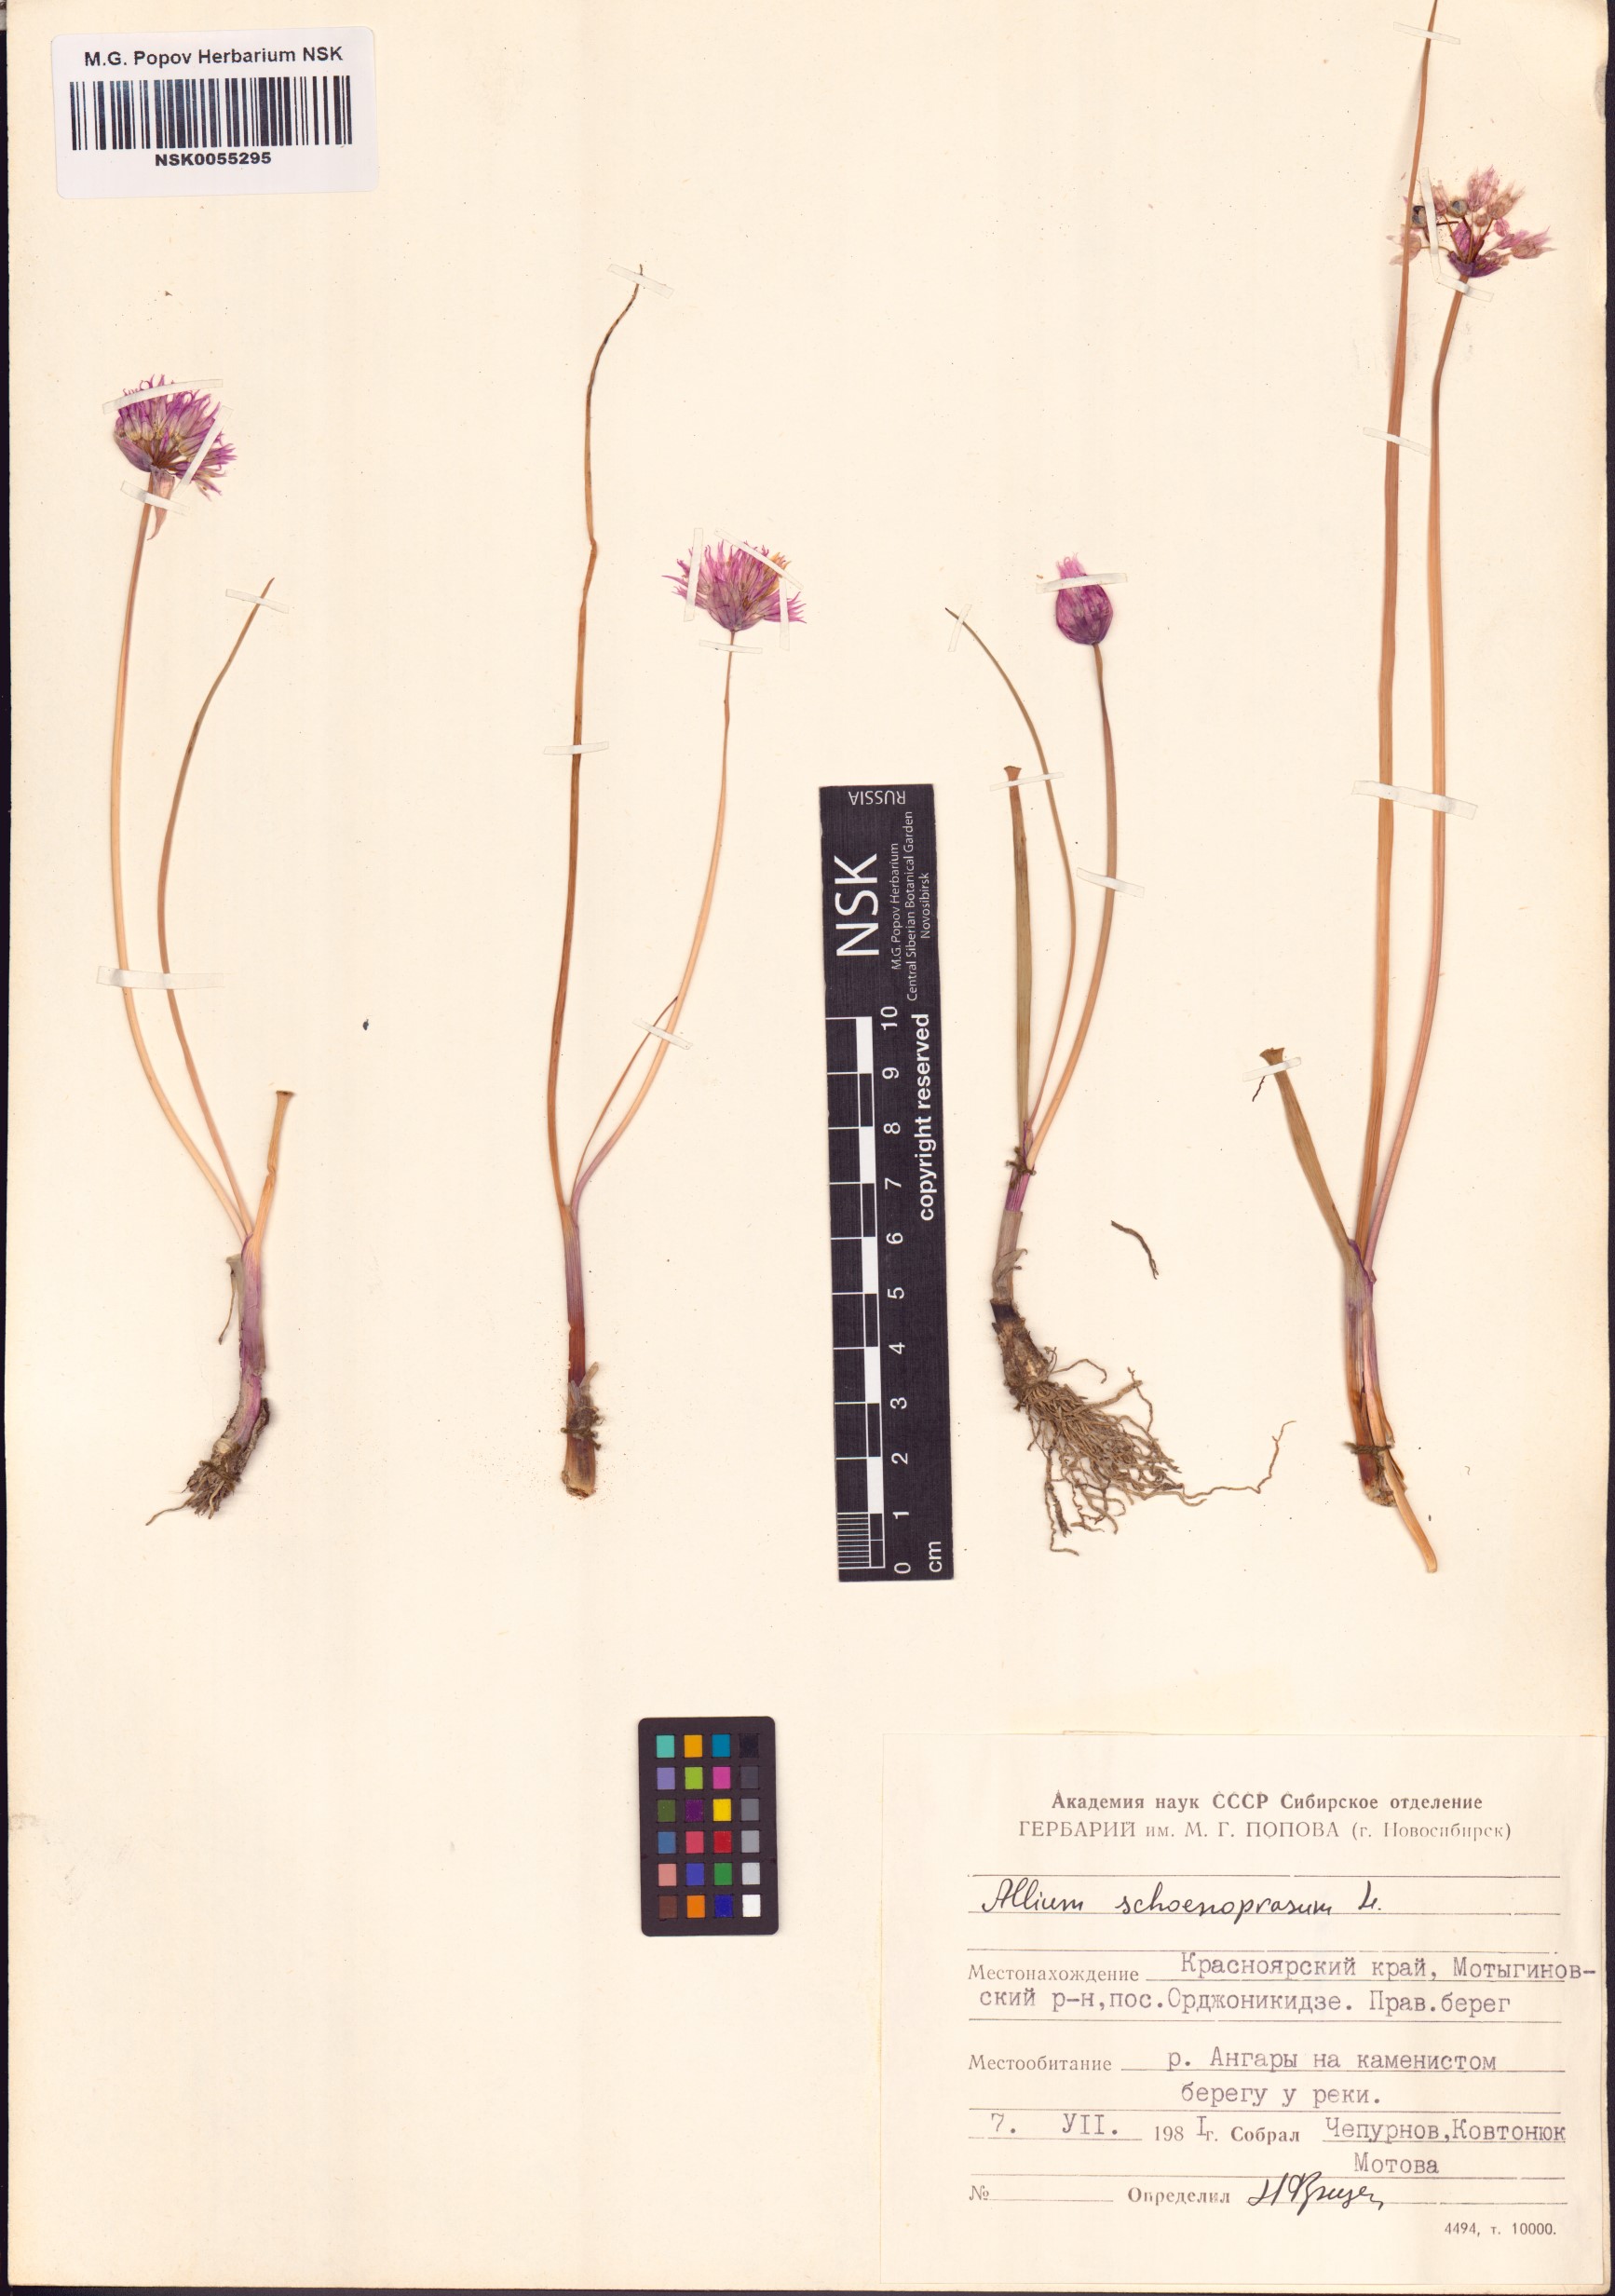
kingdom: Plantae
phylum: Tracheophyta
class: Liliopsida
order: Asparagales
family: Amaryllidaceae
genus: Allium
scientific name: Allium schoenoprasum
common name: Chives
